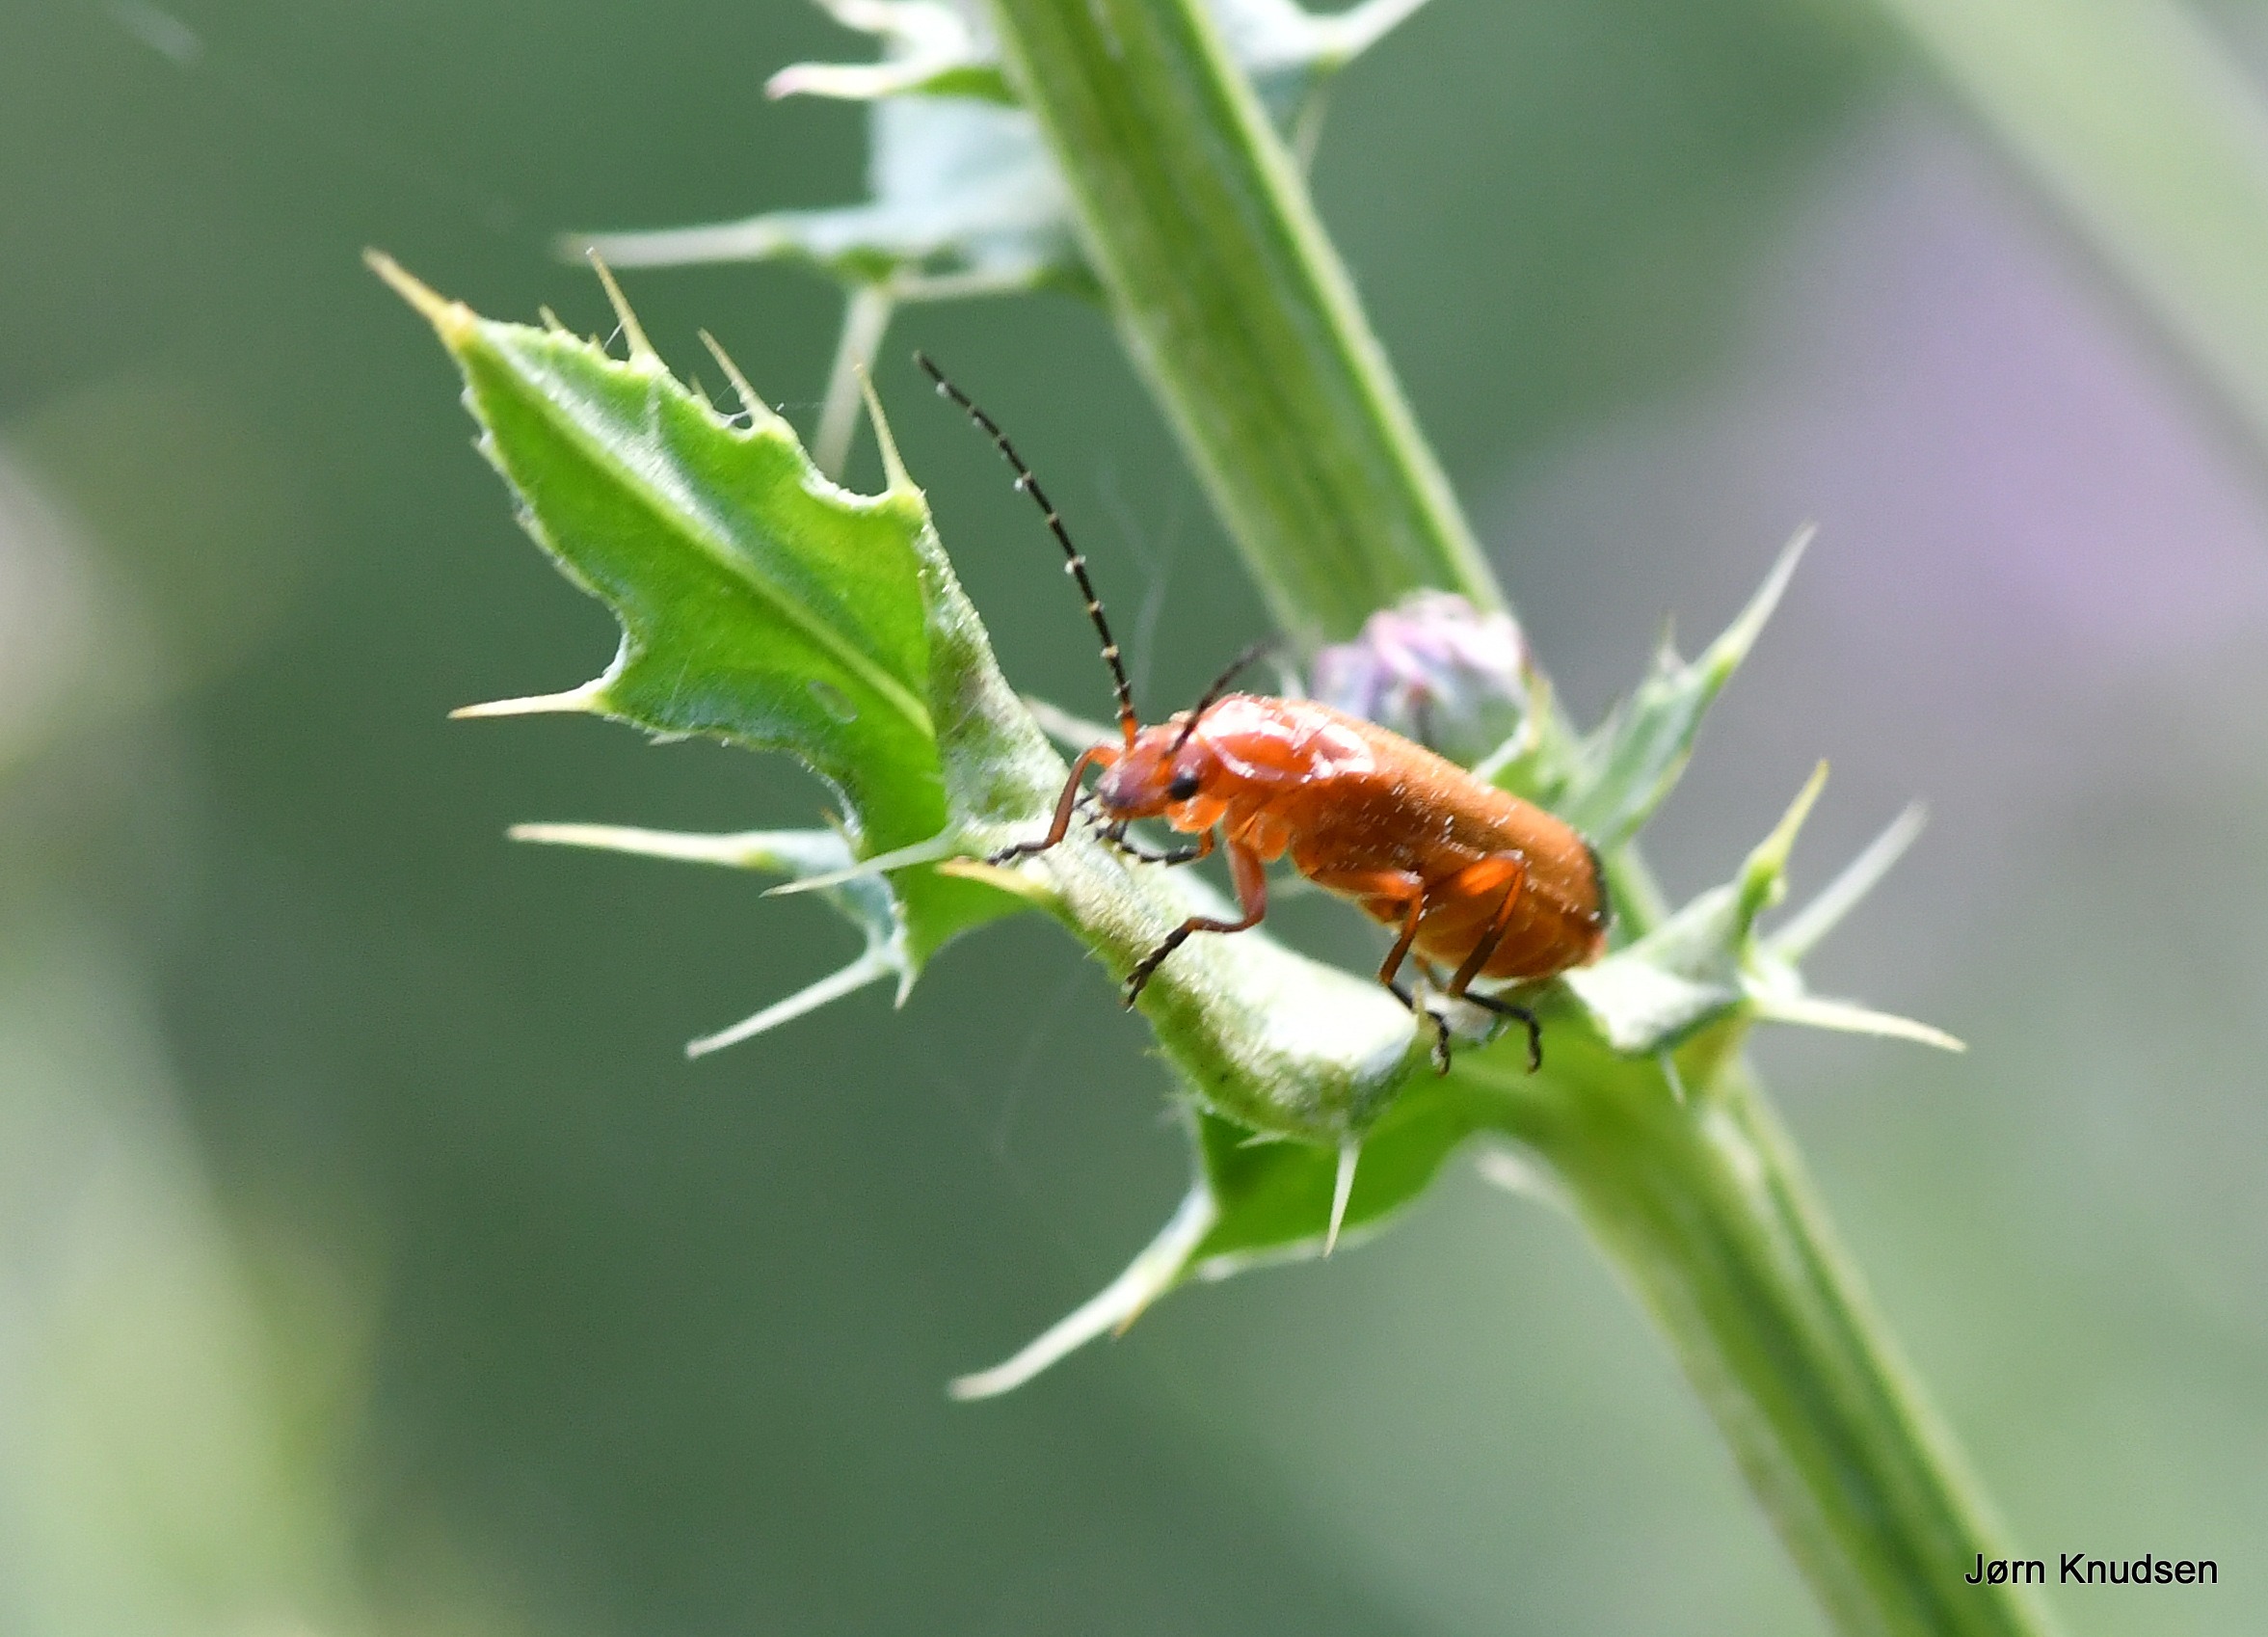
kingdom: Animalia
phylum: Arthropoda
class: Insecta
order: Coleoptera
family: Cantharidae
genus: Rhagonycha
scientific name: Rhagonycha fulva
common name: Præstebille
